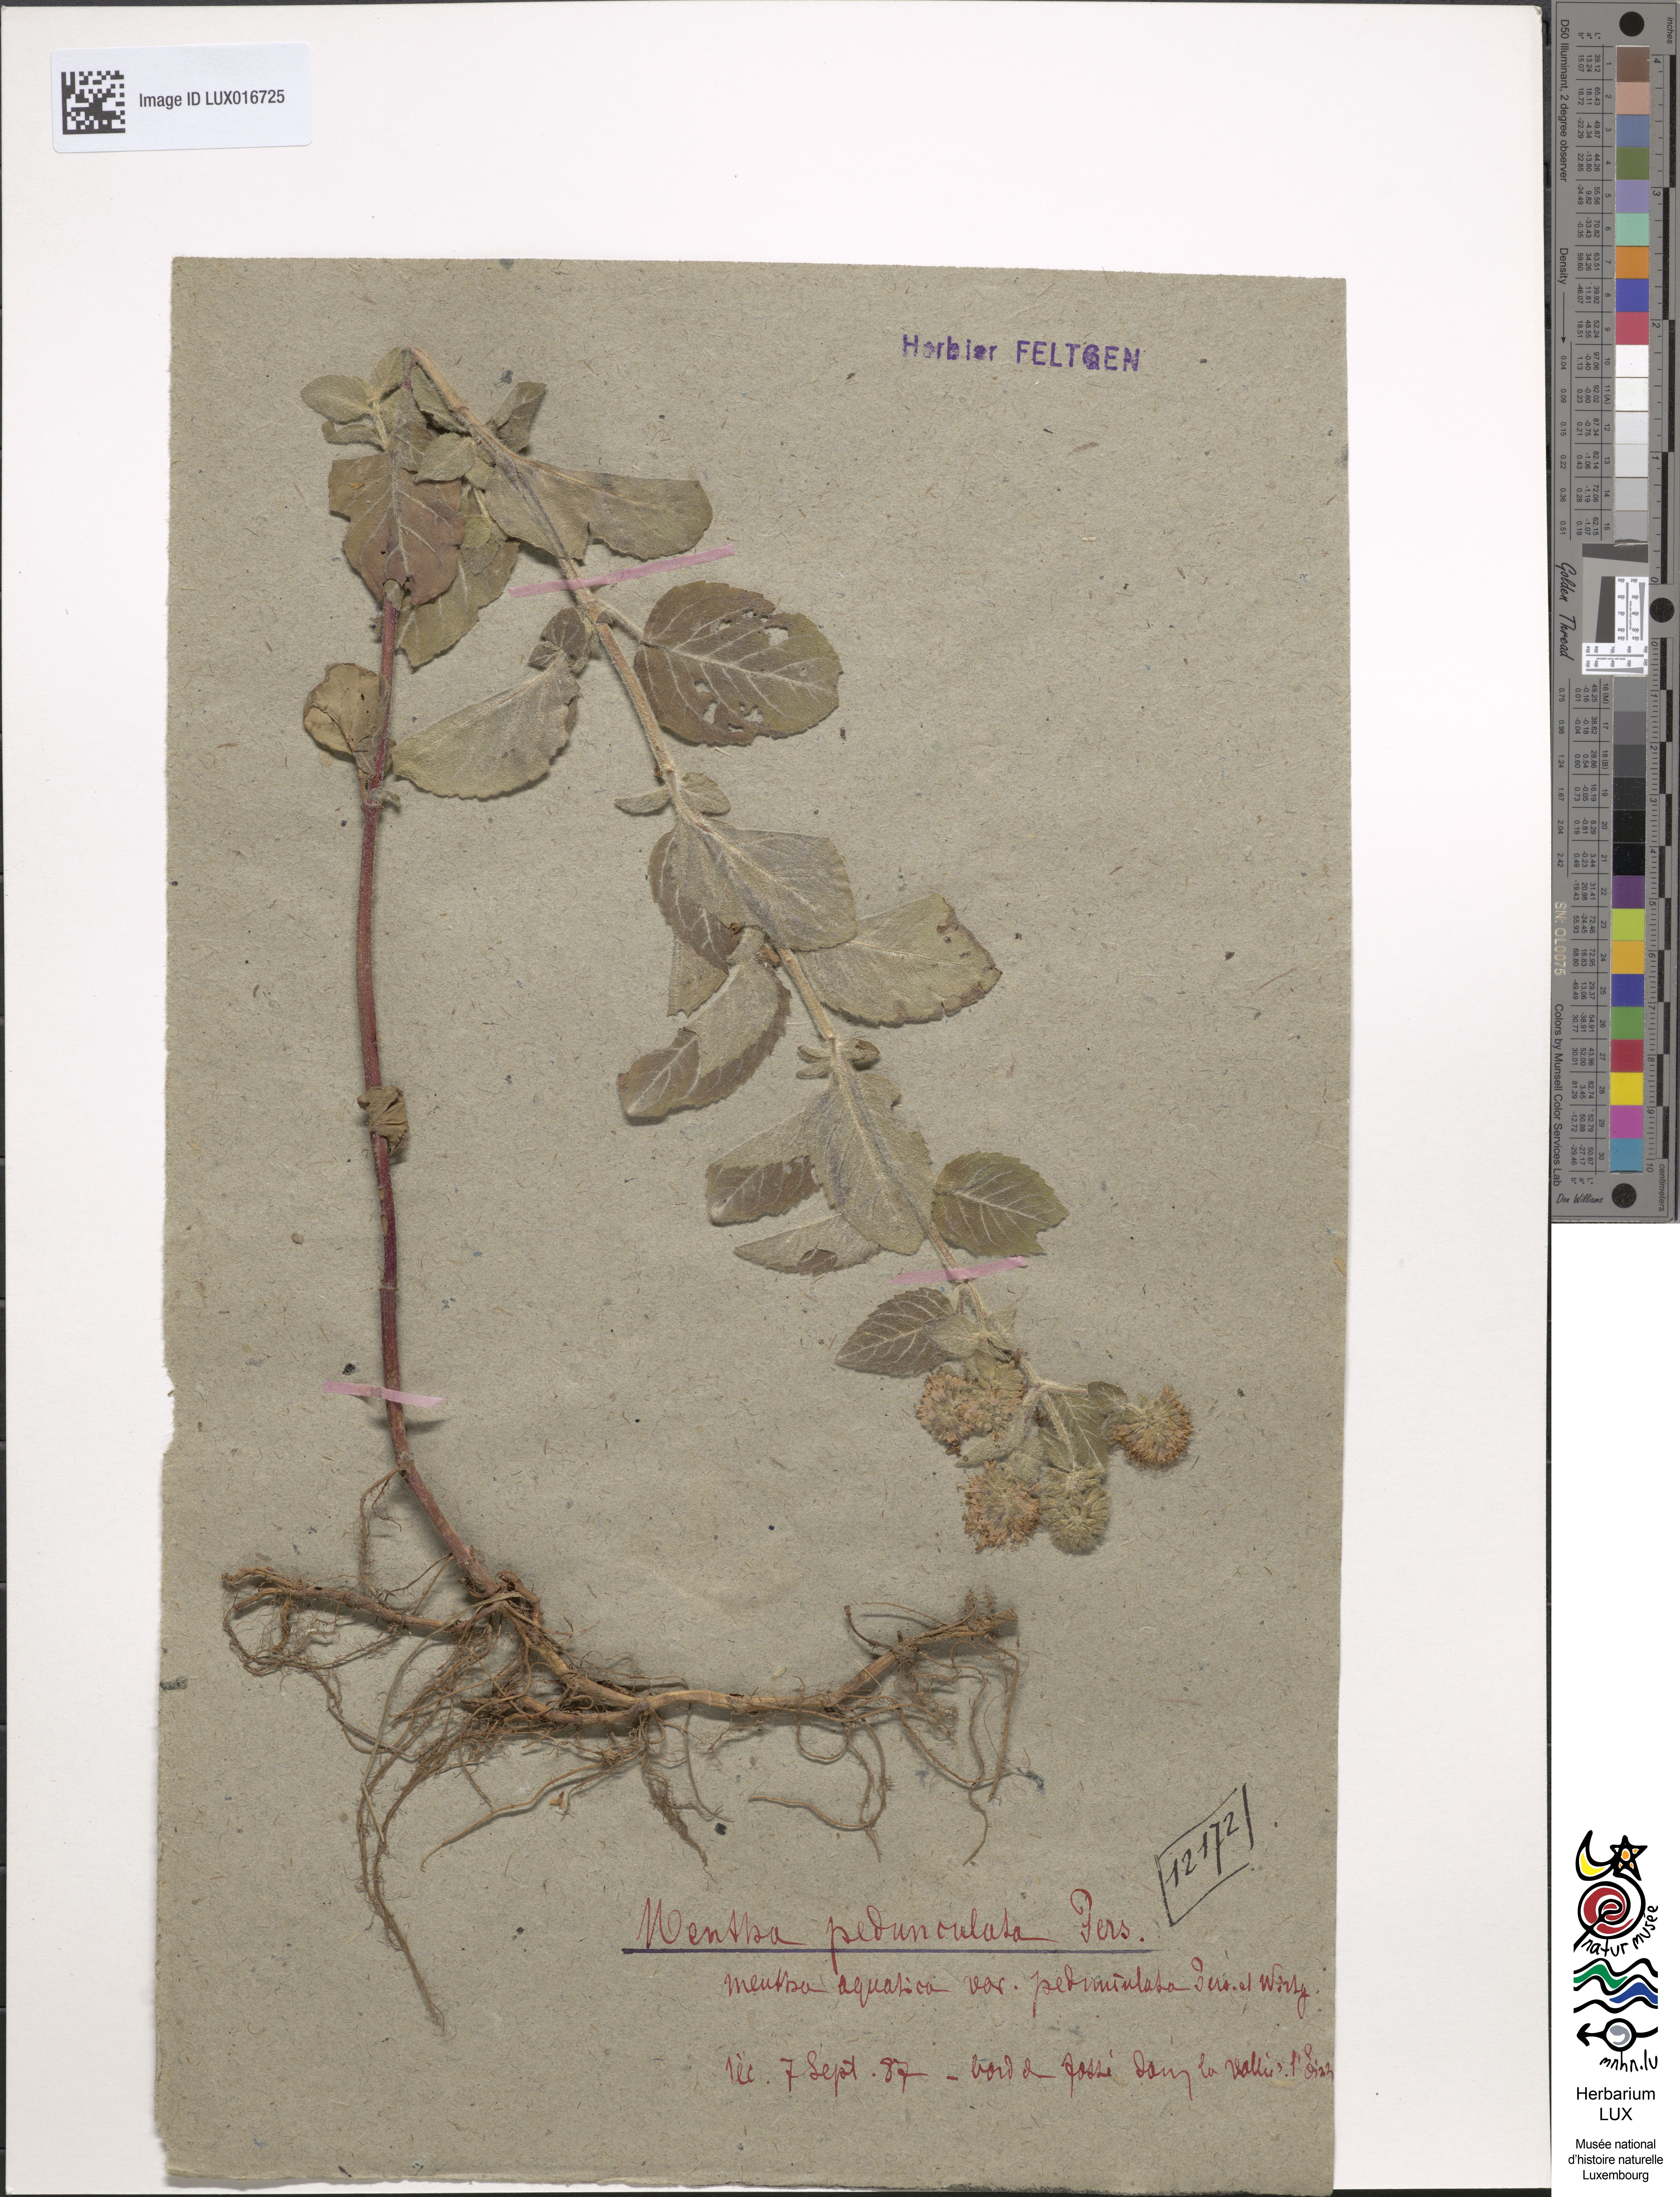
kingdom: Plantae
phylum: Tracheophyta
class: Magnoliopsida
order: Lamiales
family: Lamiaceae
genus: Mentha
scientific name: Mentha aquatica
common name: Water mint
